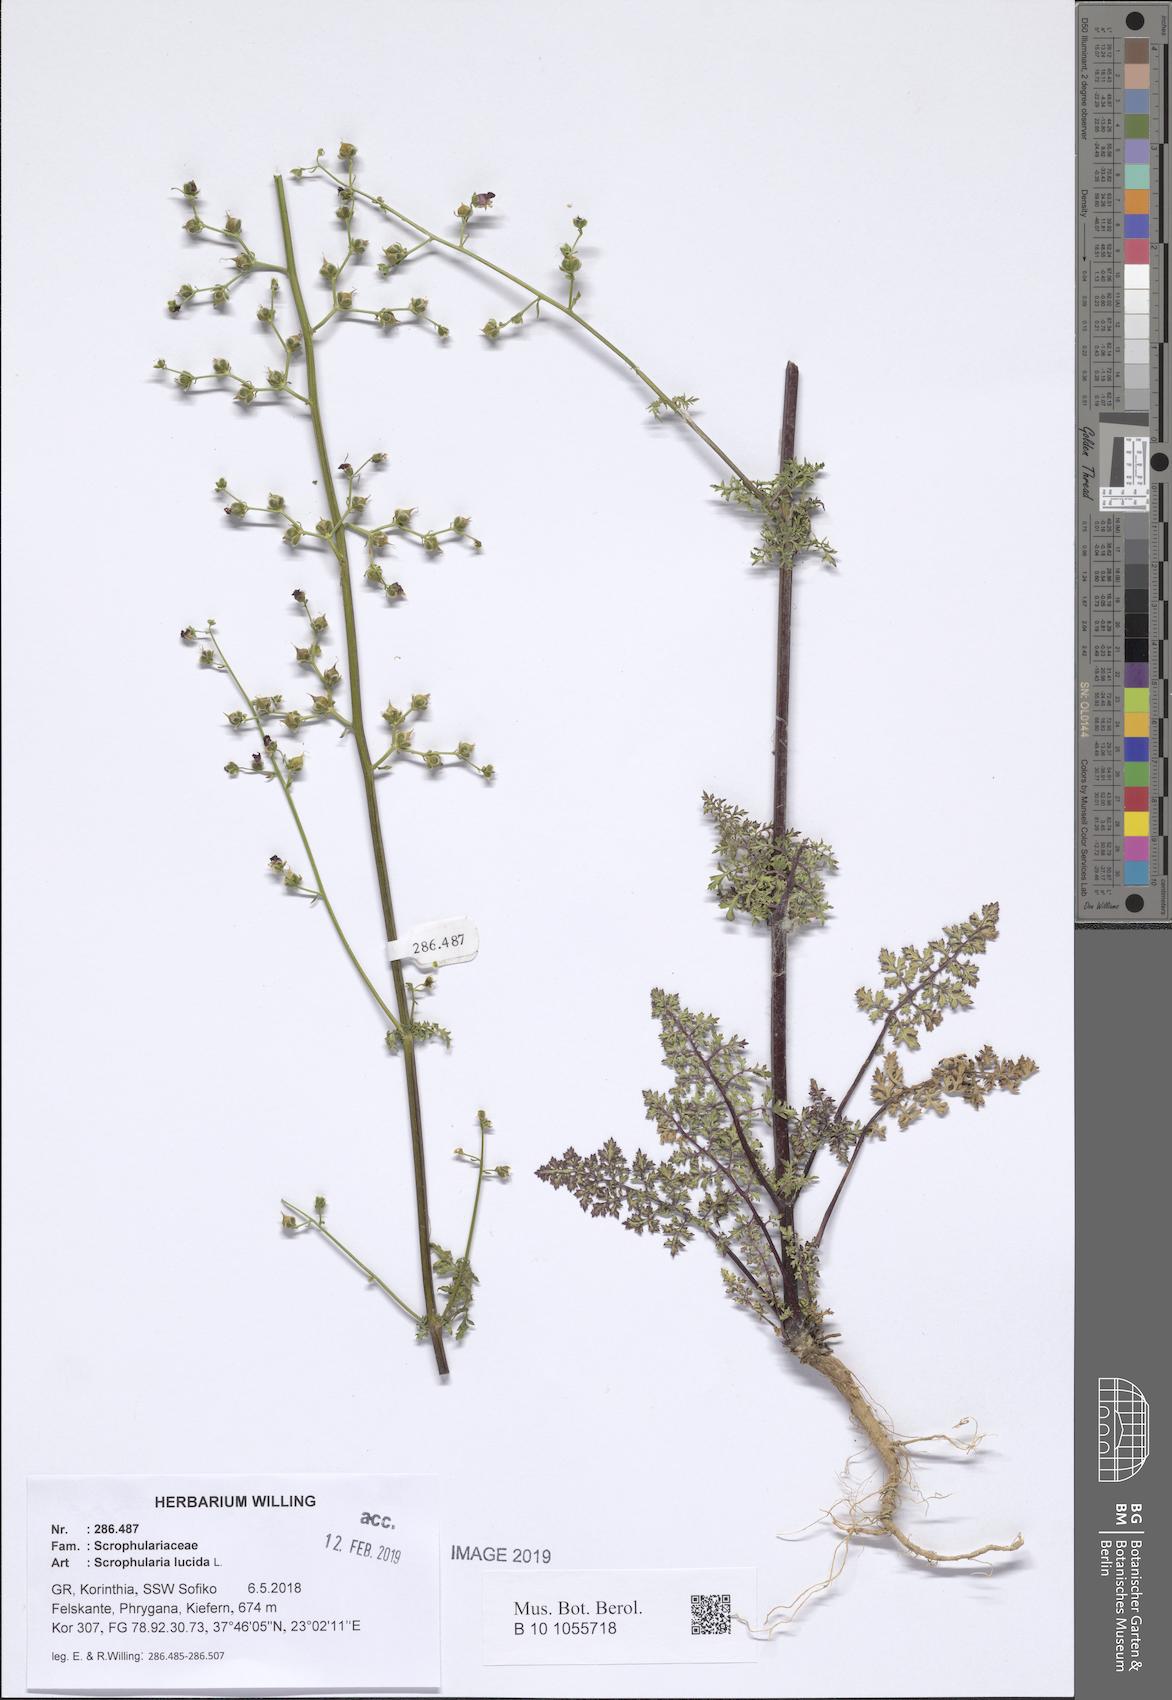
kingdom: Plantae
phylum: Tracheophyta
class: Magnoliopsida
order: Lamiales
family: Scrophulariaceae
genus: Scrophularia
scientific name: Scrophularia lucida
